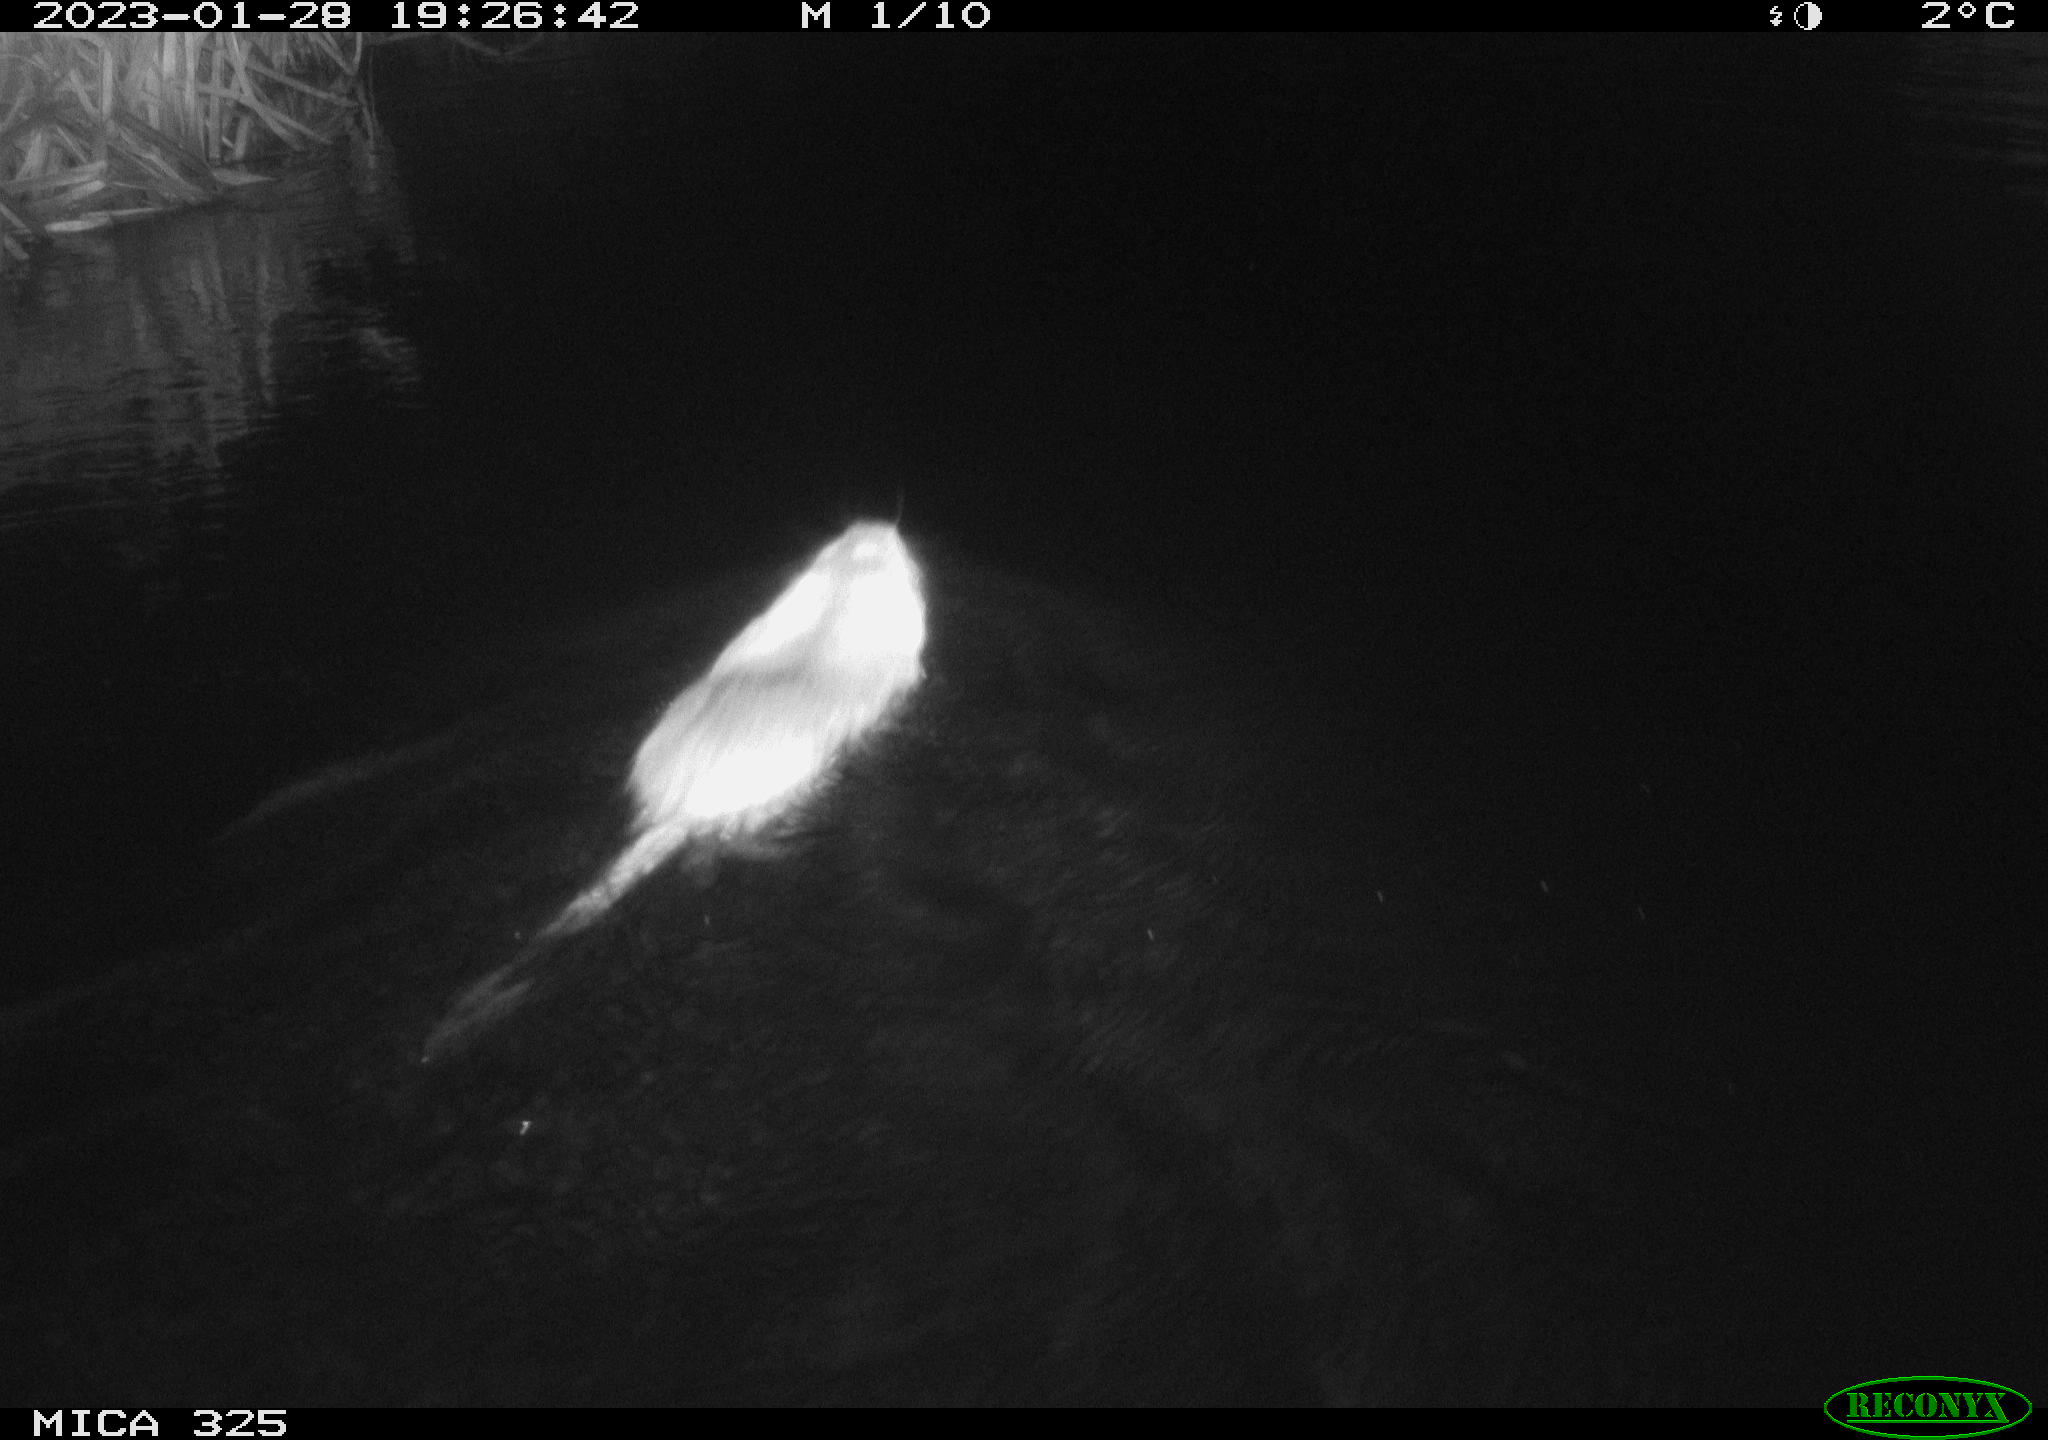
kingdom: Animalia
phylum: Chordata
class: Mammalia
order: Rodentia
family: Myocastoridae
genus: Myocastor
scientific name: Myocastor coypus
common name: Coypu
